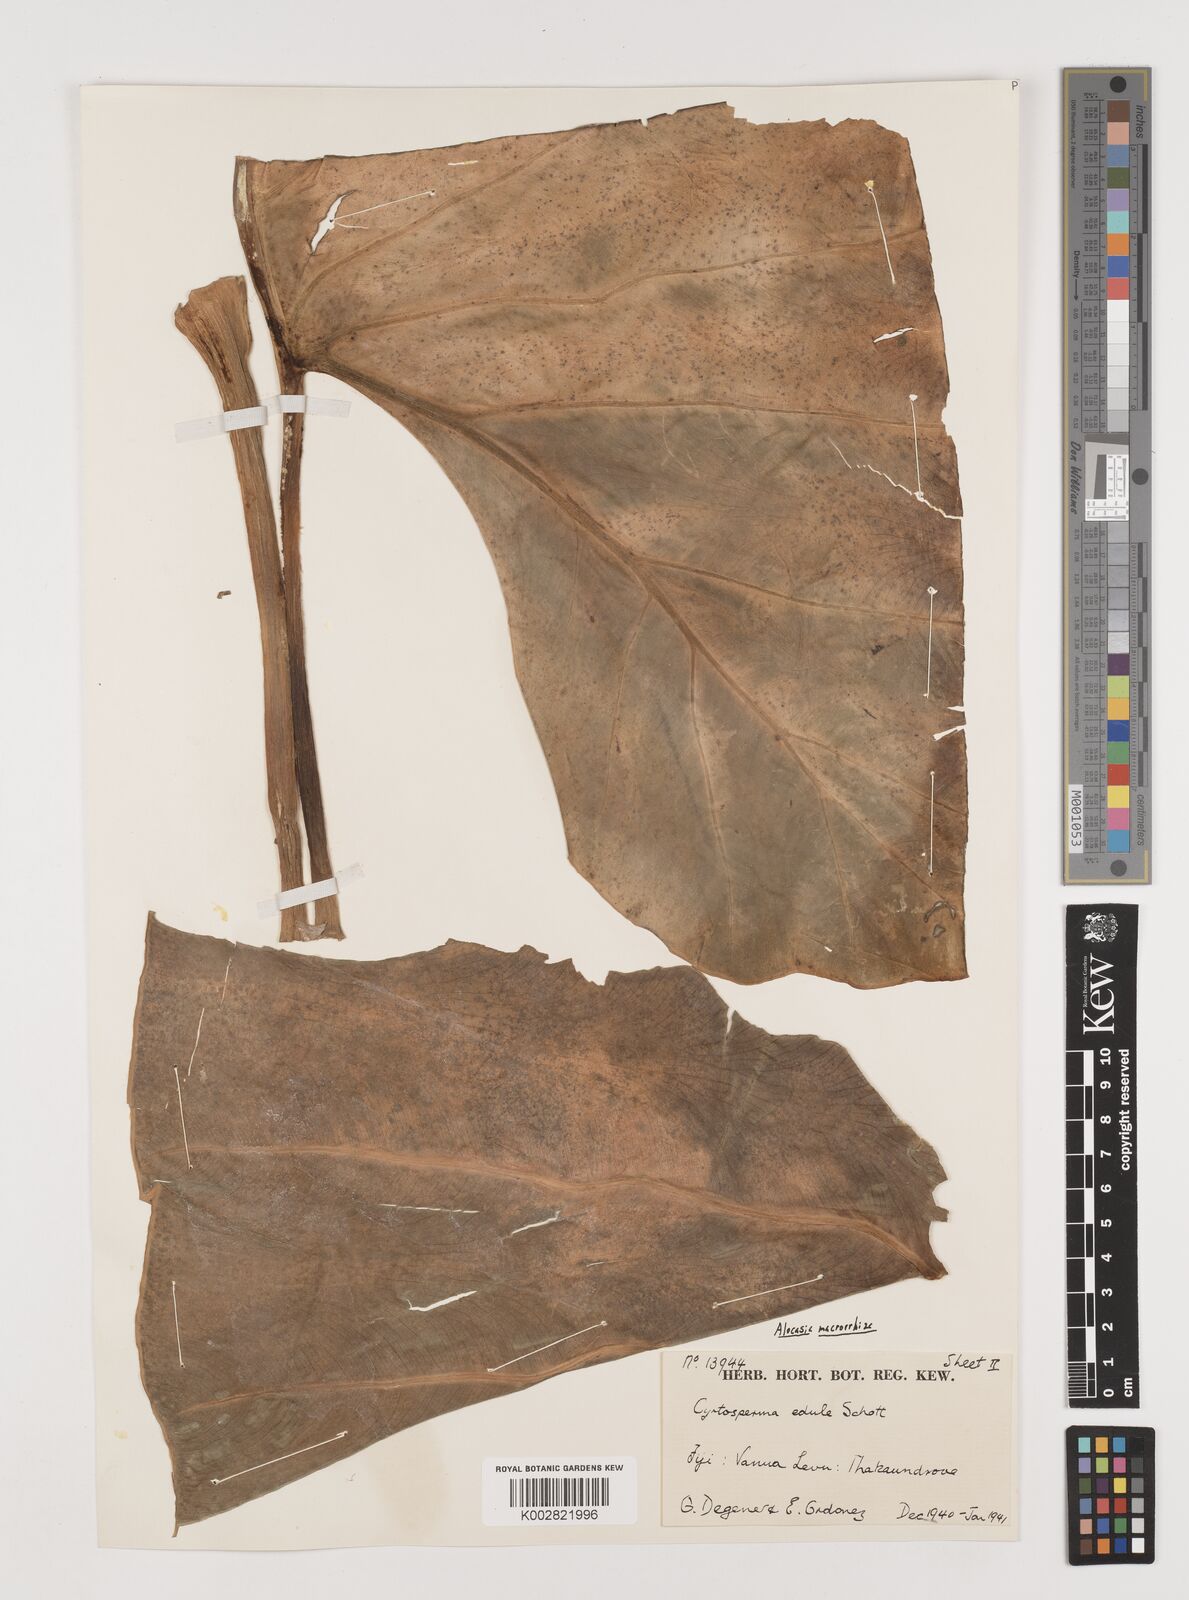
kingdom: Plantae
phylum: Tracheophyta
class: Liliopsida
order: Alismatales
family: Araceae
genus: Alocasia
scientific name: Alocasia indica
